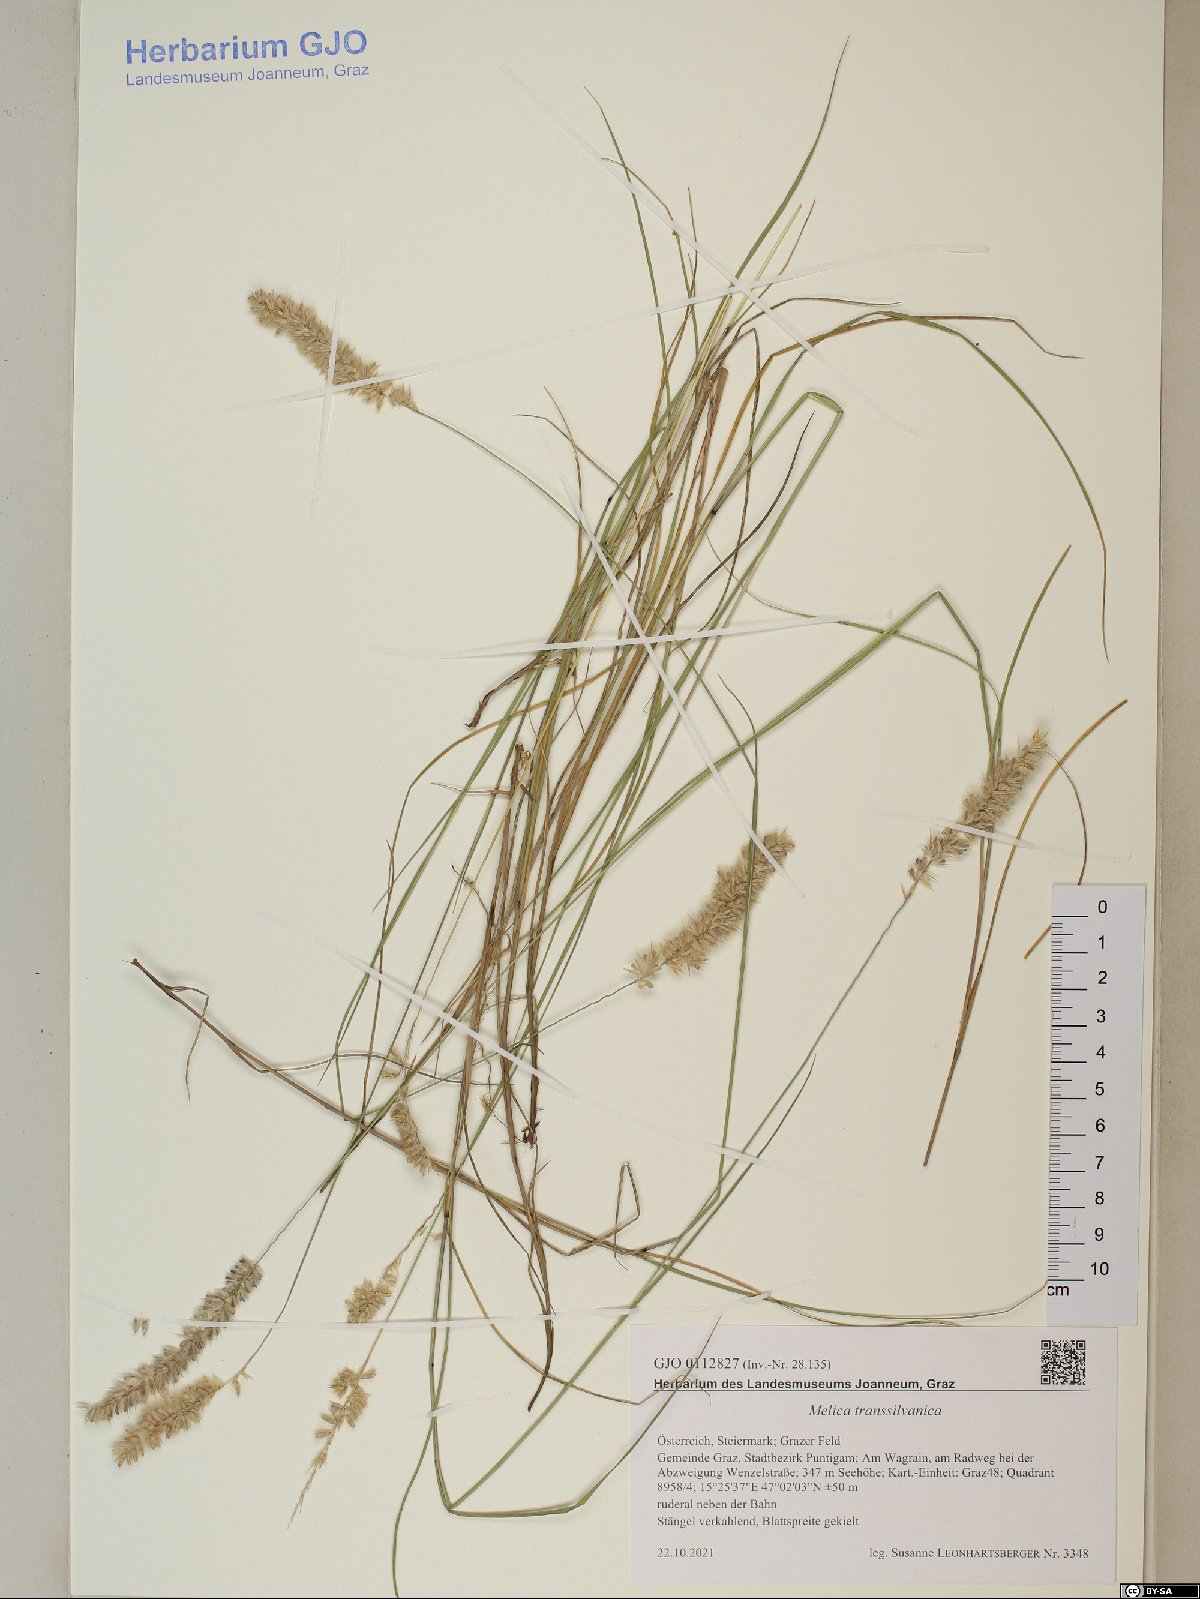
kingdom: Plantae
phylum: Tracheophyta
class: Liliopsida
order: Poales
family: Poaceae
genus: Melica
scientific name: Melica transsilvanica
